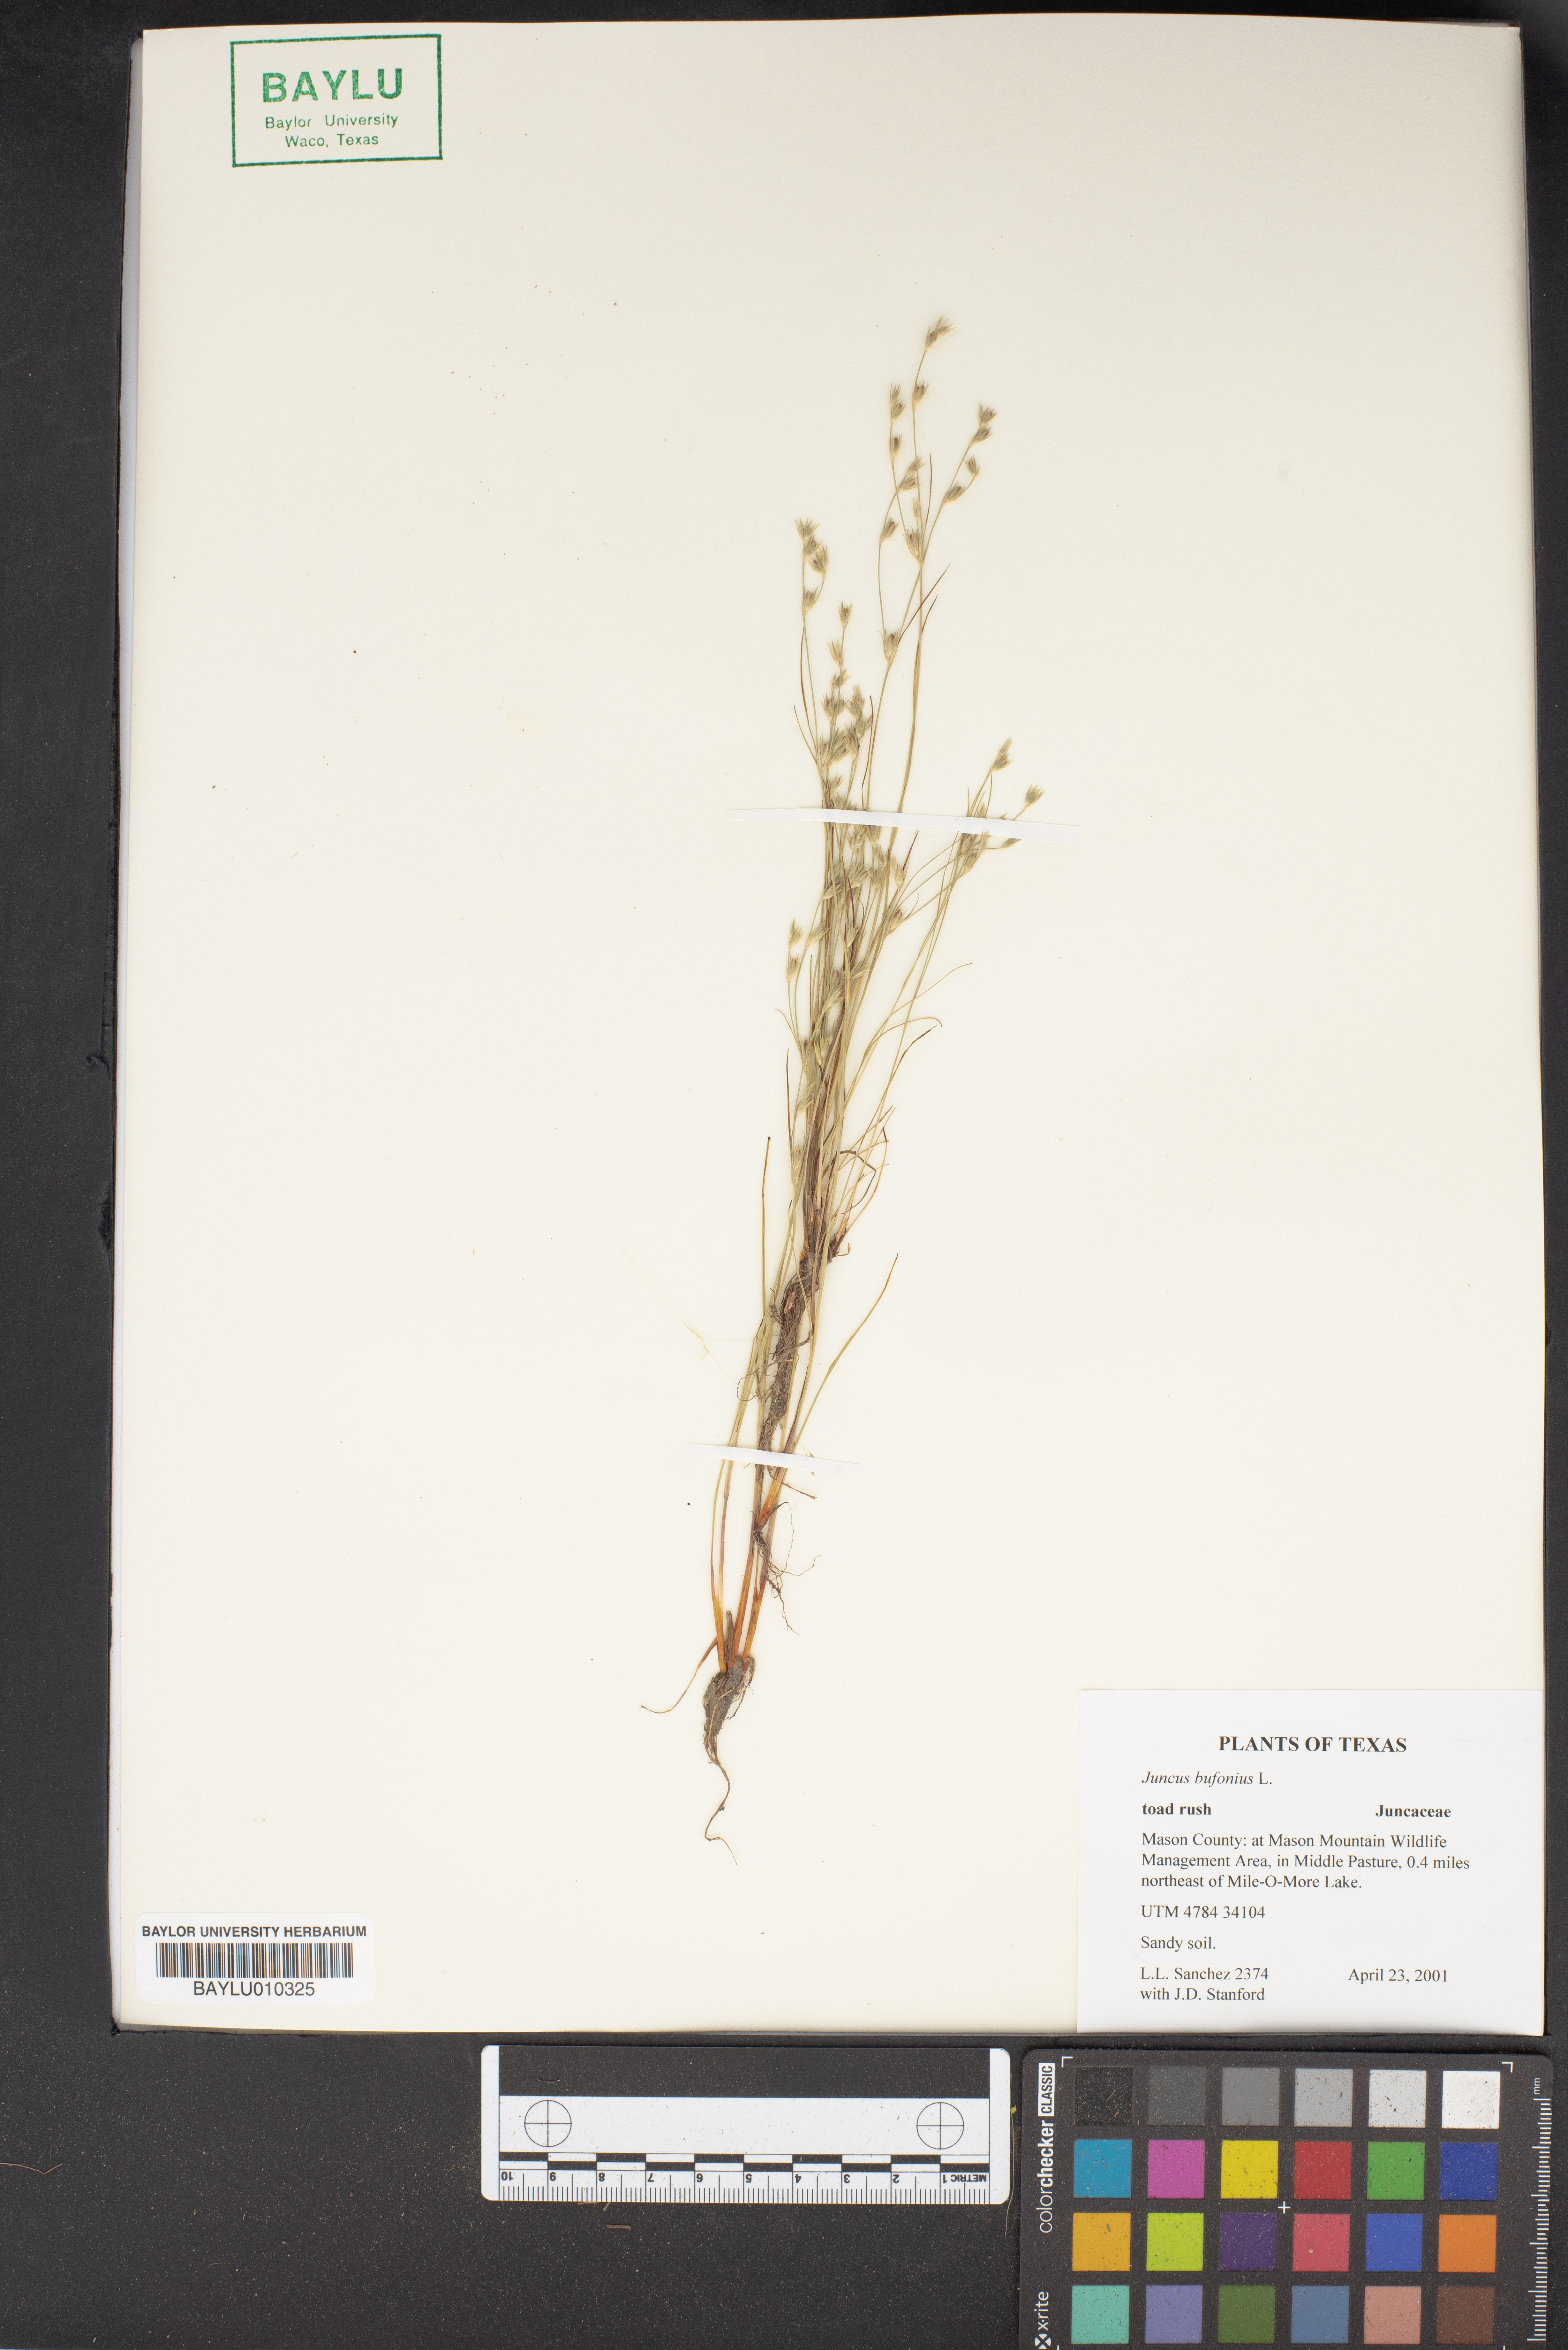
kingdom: Plantae
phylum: Tracheophyta
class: Liliopsida
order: Poales
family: Juncaceae
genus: Juncus
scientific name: Juncus bufonius
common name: Toad rush
